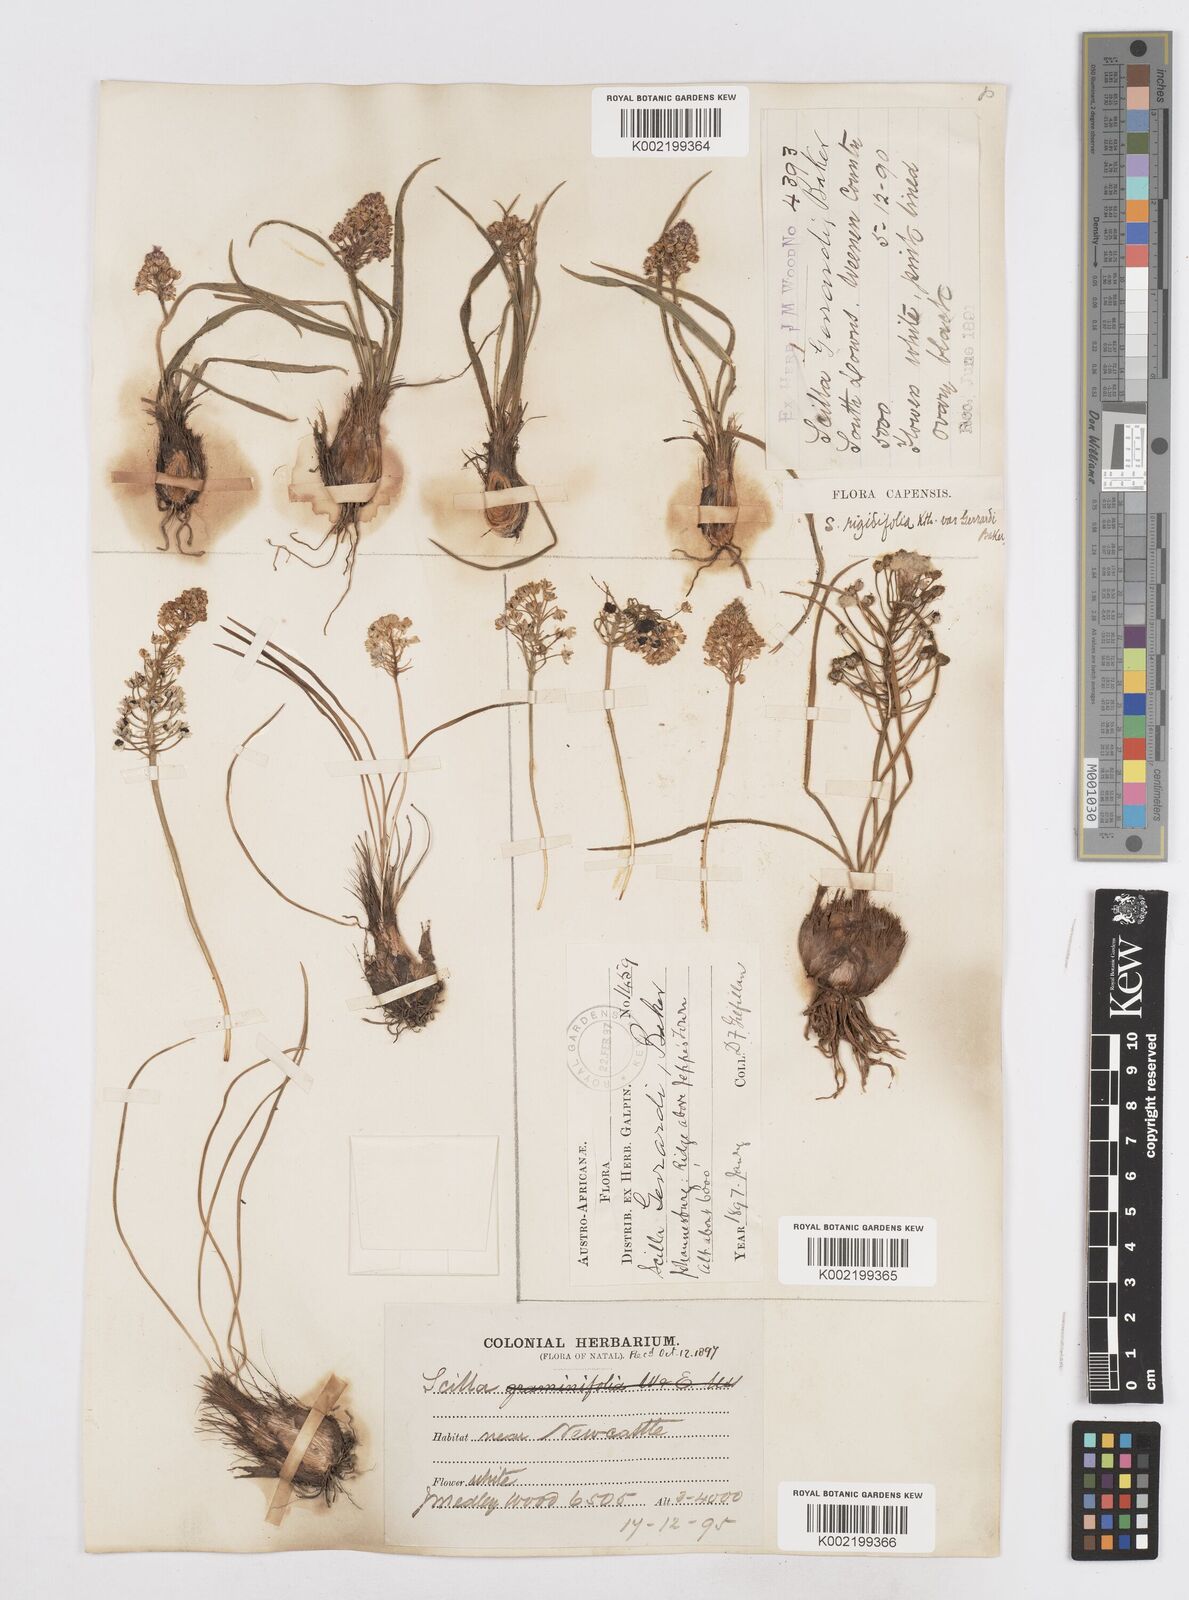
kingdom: Plantae
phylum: Tracheophyta
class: Liliopsida
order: Asparagales
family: Asparagaceae
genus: Schizocarphus
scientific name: Schizocarphus nervosus
